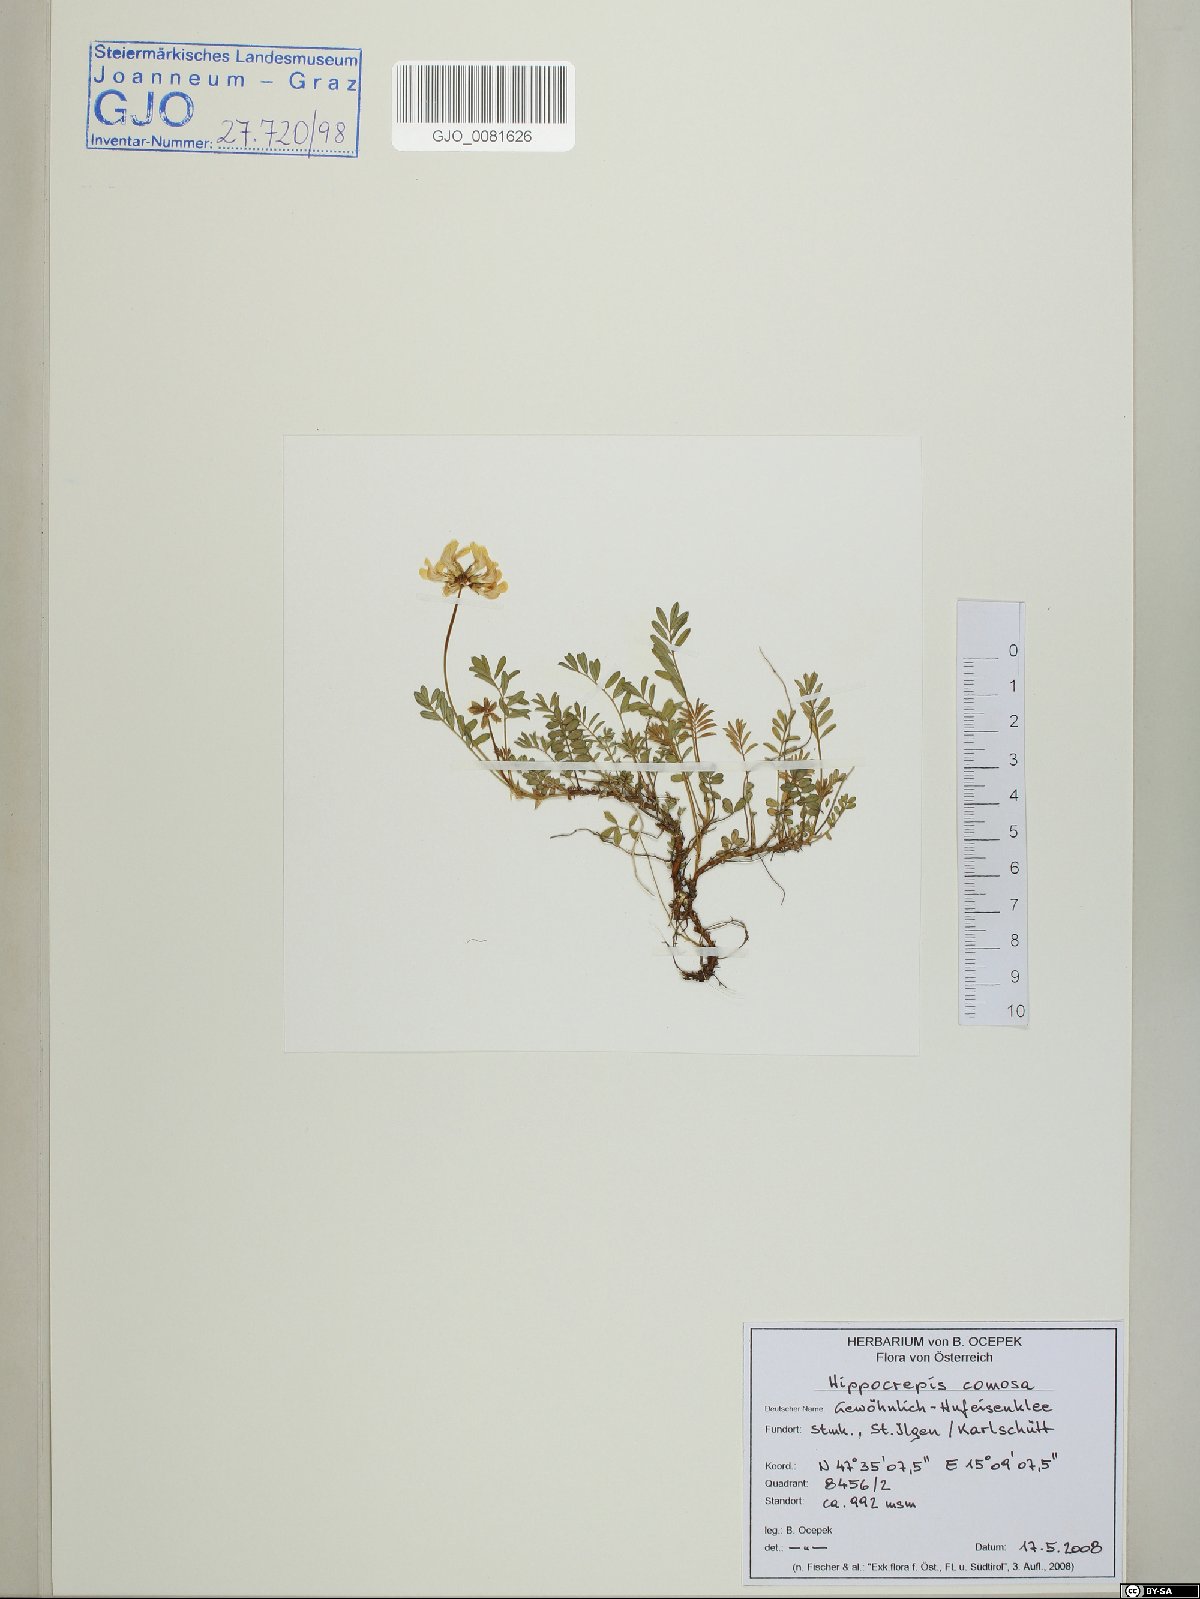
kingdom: Plantae
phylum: Tracheophyta
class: Magnoliopsida
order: Fabales
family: Fabaceae
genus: Hippocrepis
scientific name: Hippocrepis comosa
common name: Horseshoe vetch
